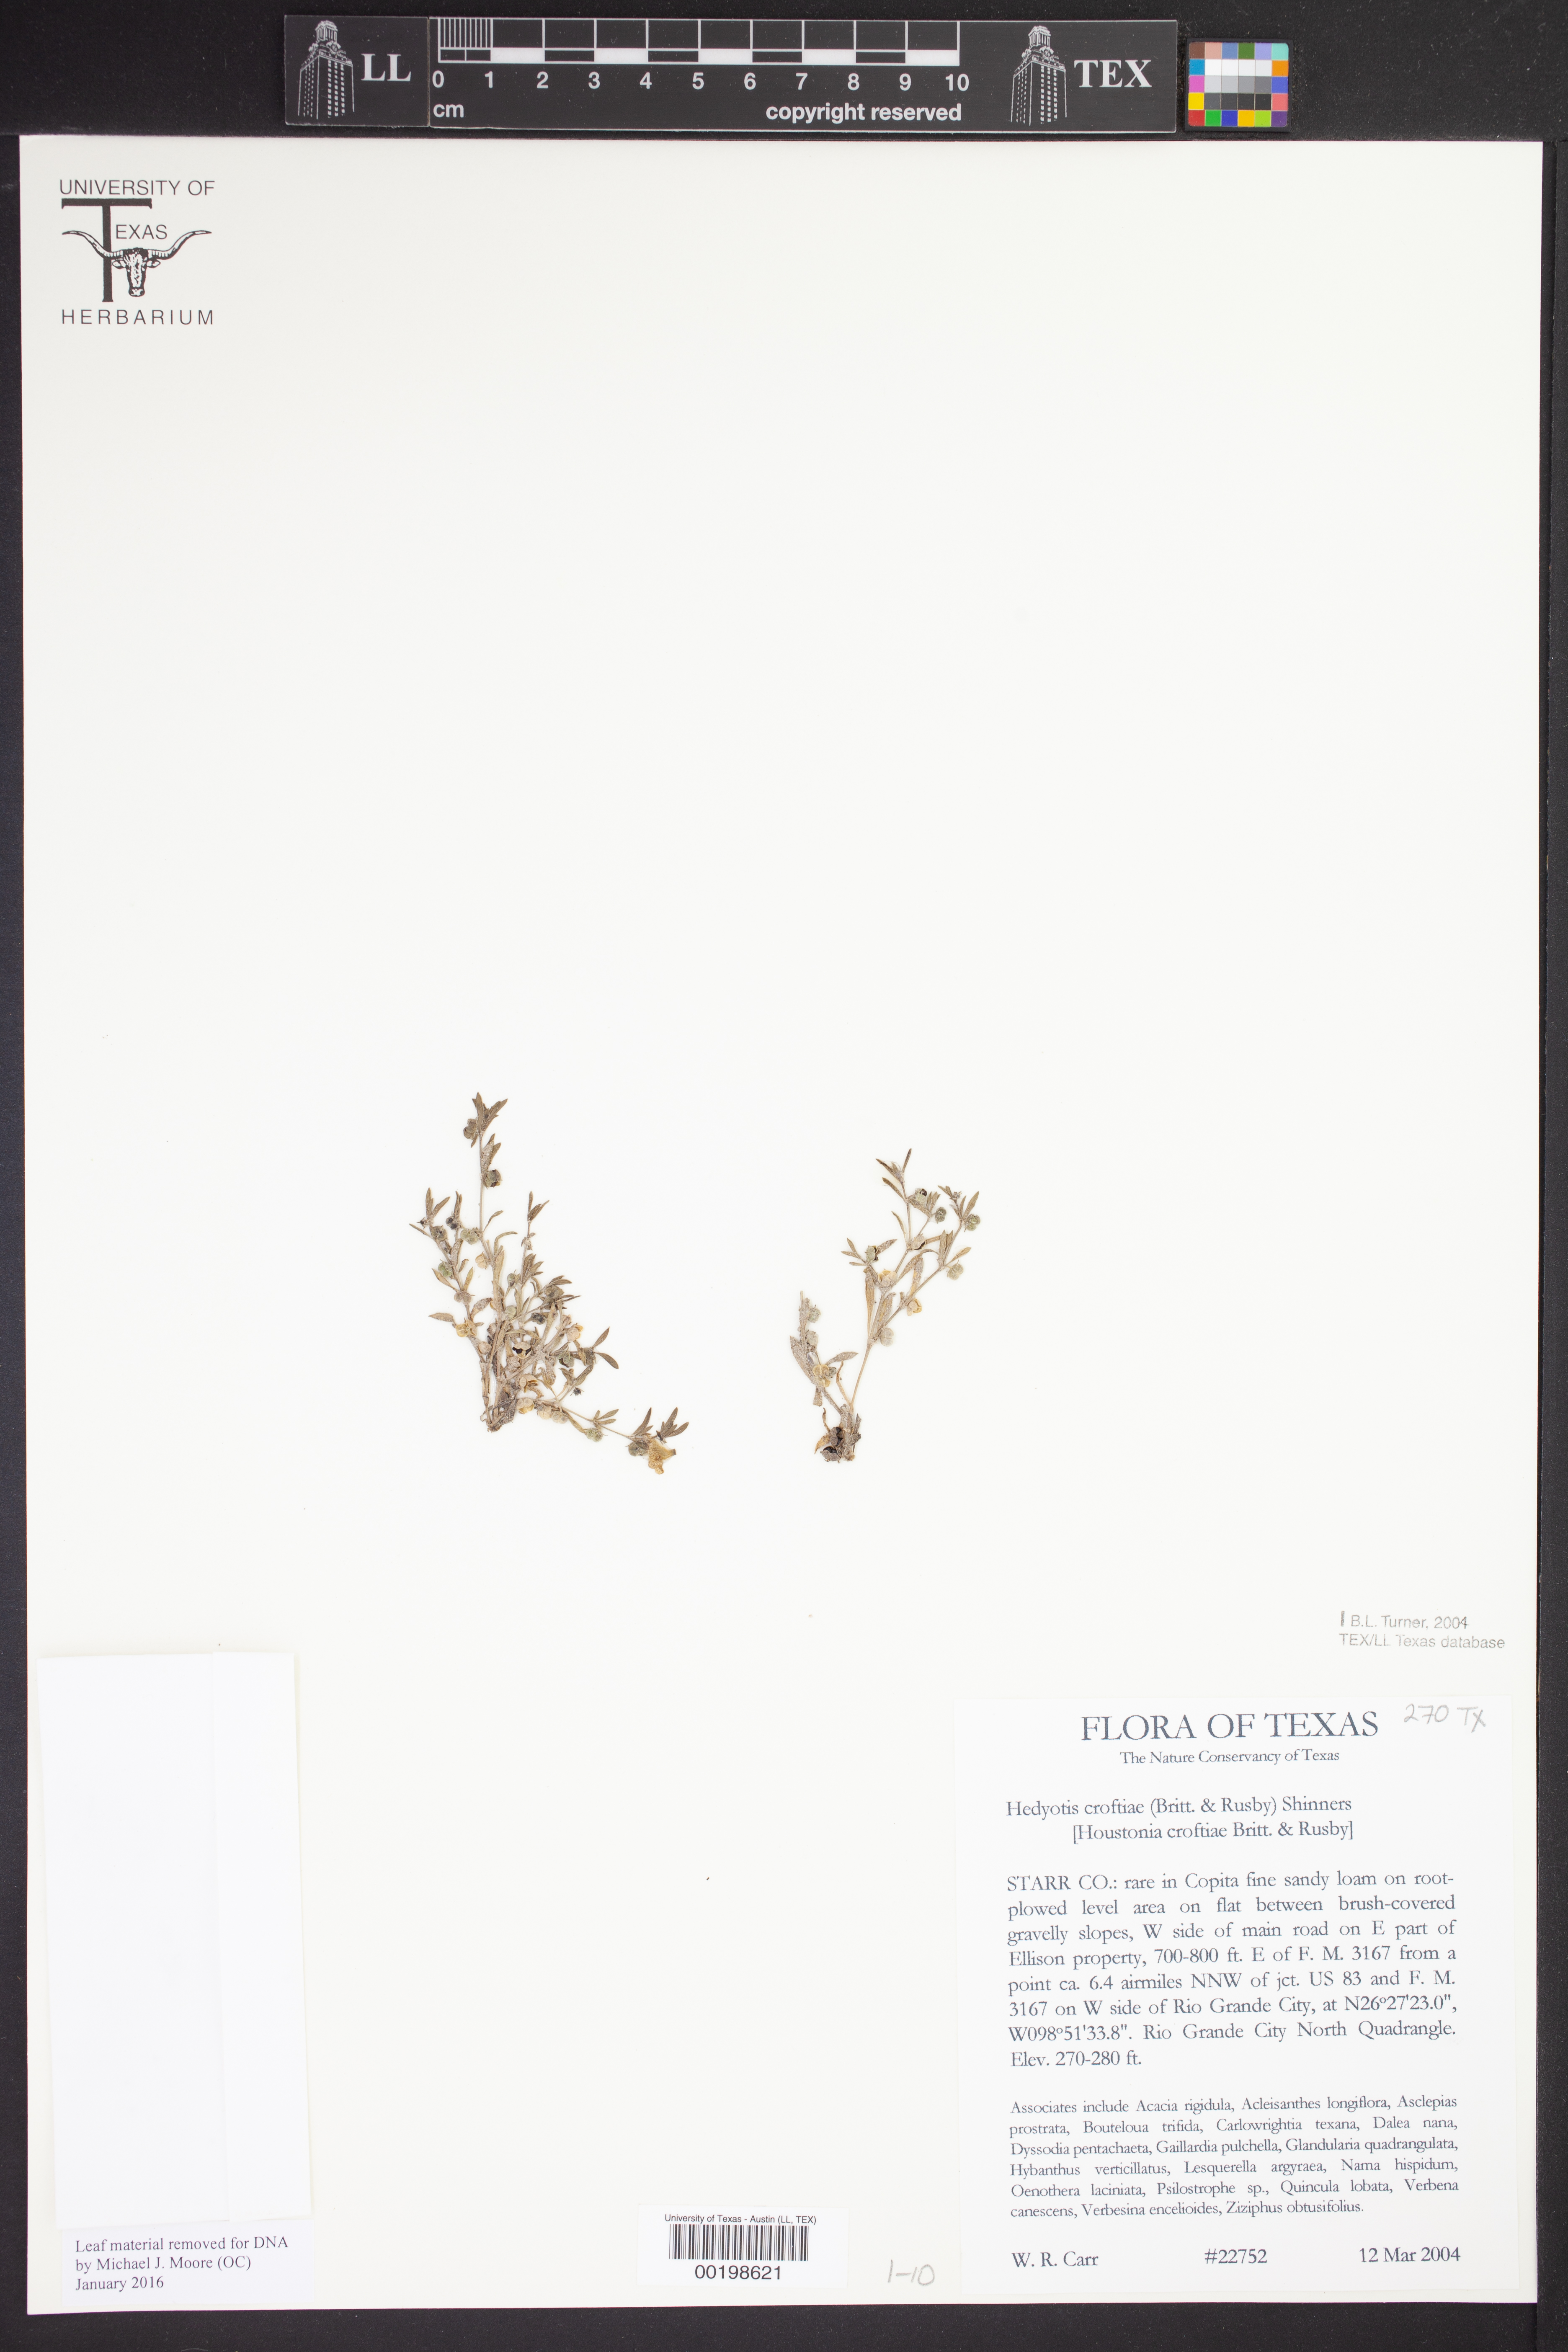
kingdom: Plantae
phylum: Tracheophyta
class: Magnoliopsida
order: Gentianales
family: Rubiaceae
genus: Houstonia
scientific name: Houstonia croftiae
